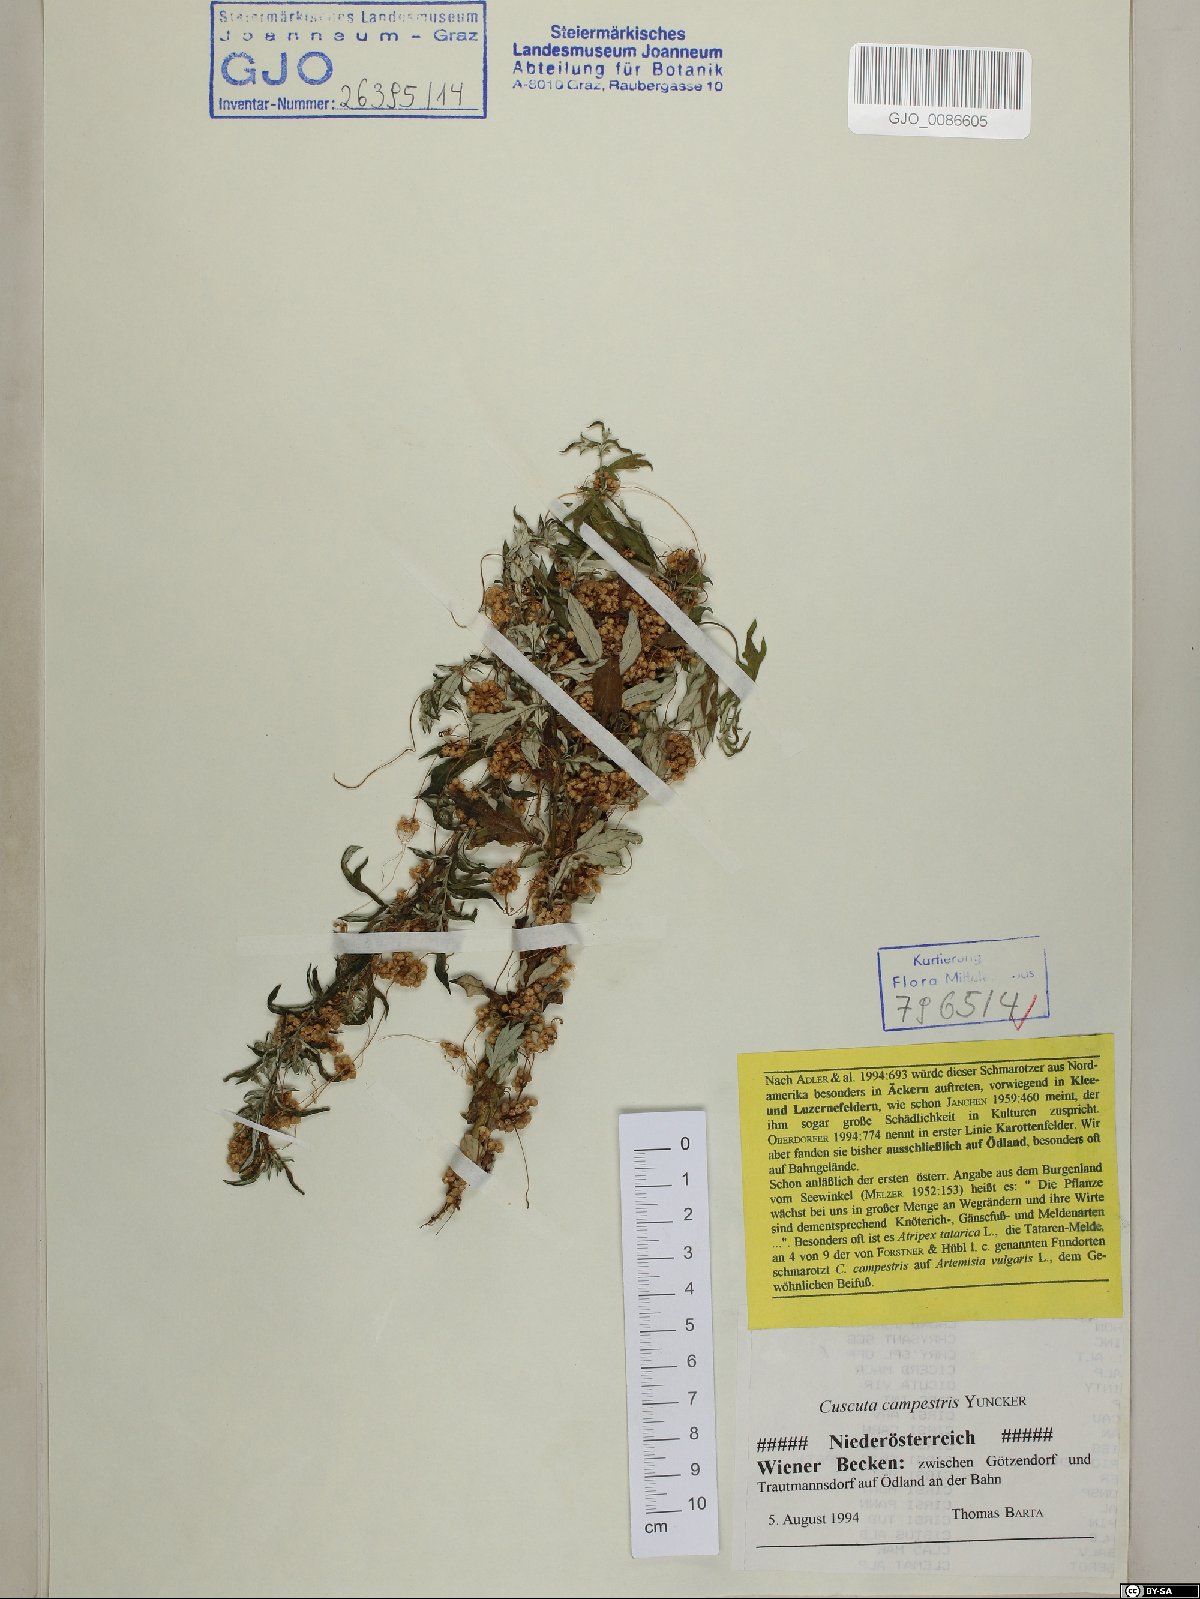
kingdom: Plantae
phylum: Tracheophyta
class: Magnoliopsida
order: Solanales
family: Convolvulaceae
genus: Cuscuta
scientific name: Cuscuta campestris
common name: Yellow dodder
